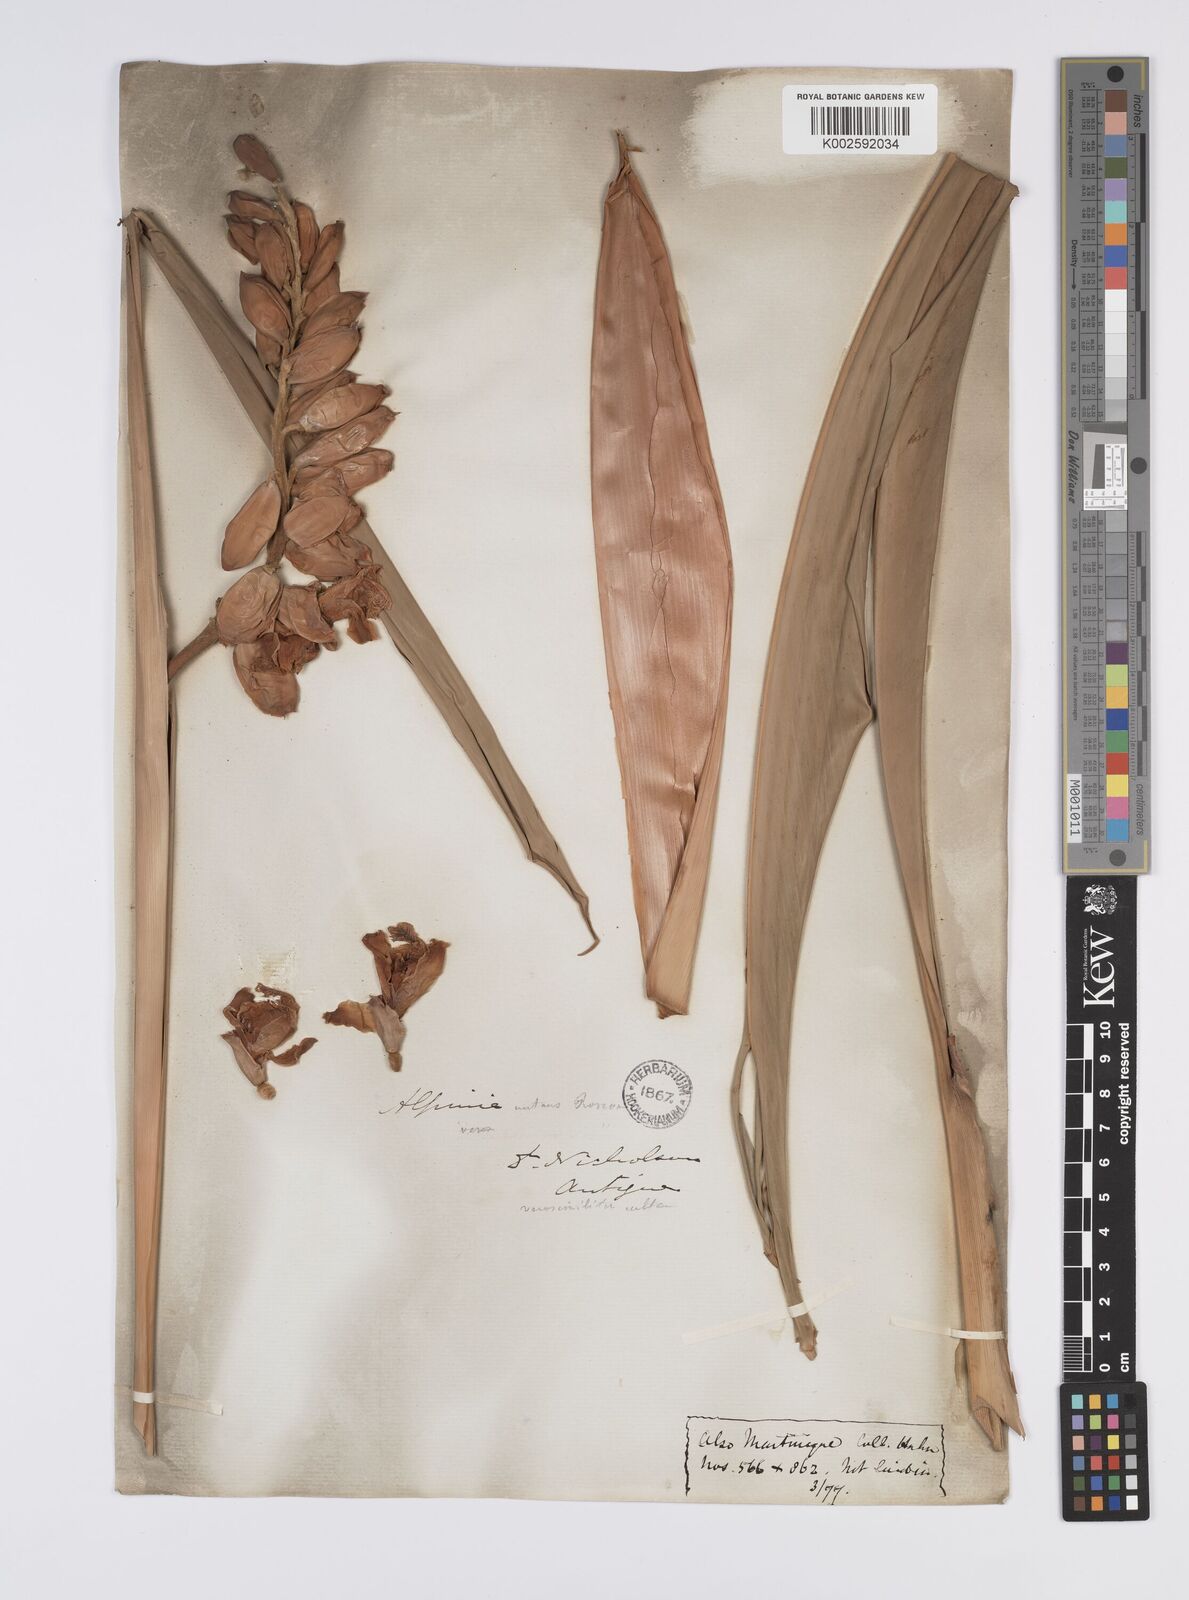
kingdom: Plantae
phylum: Tracheophyta
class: Liliopsida
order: Zingiberales
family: Zingiberaceae
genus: Alpinia
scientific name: Alpinia zerumbet
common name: Shellplant
